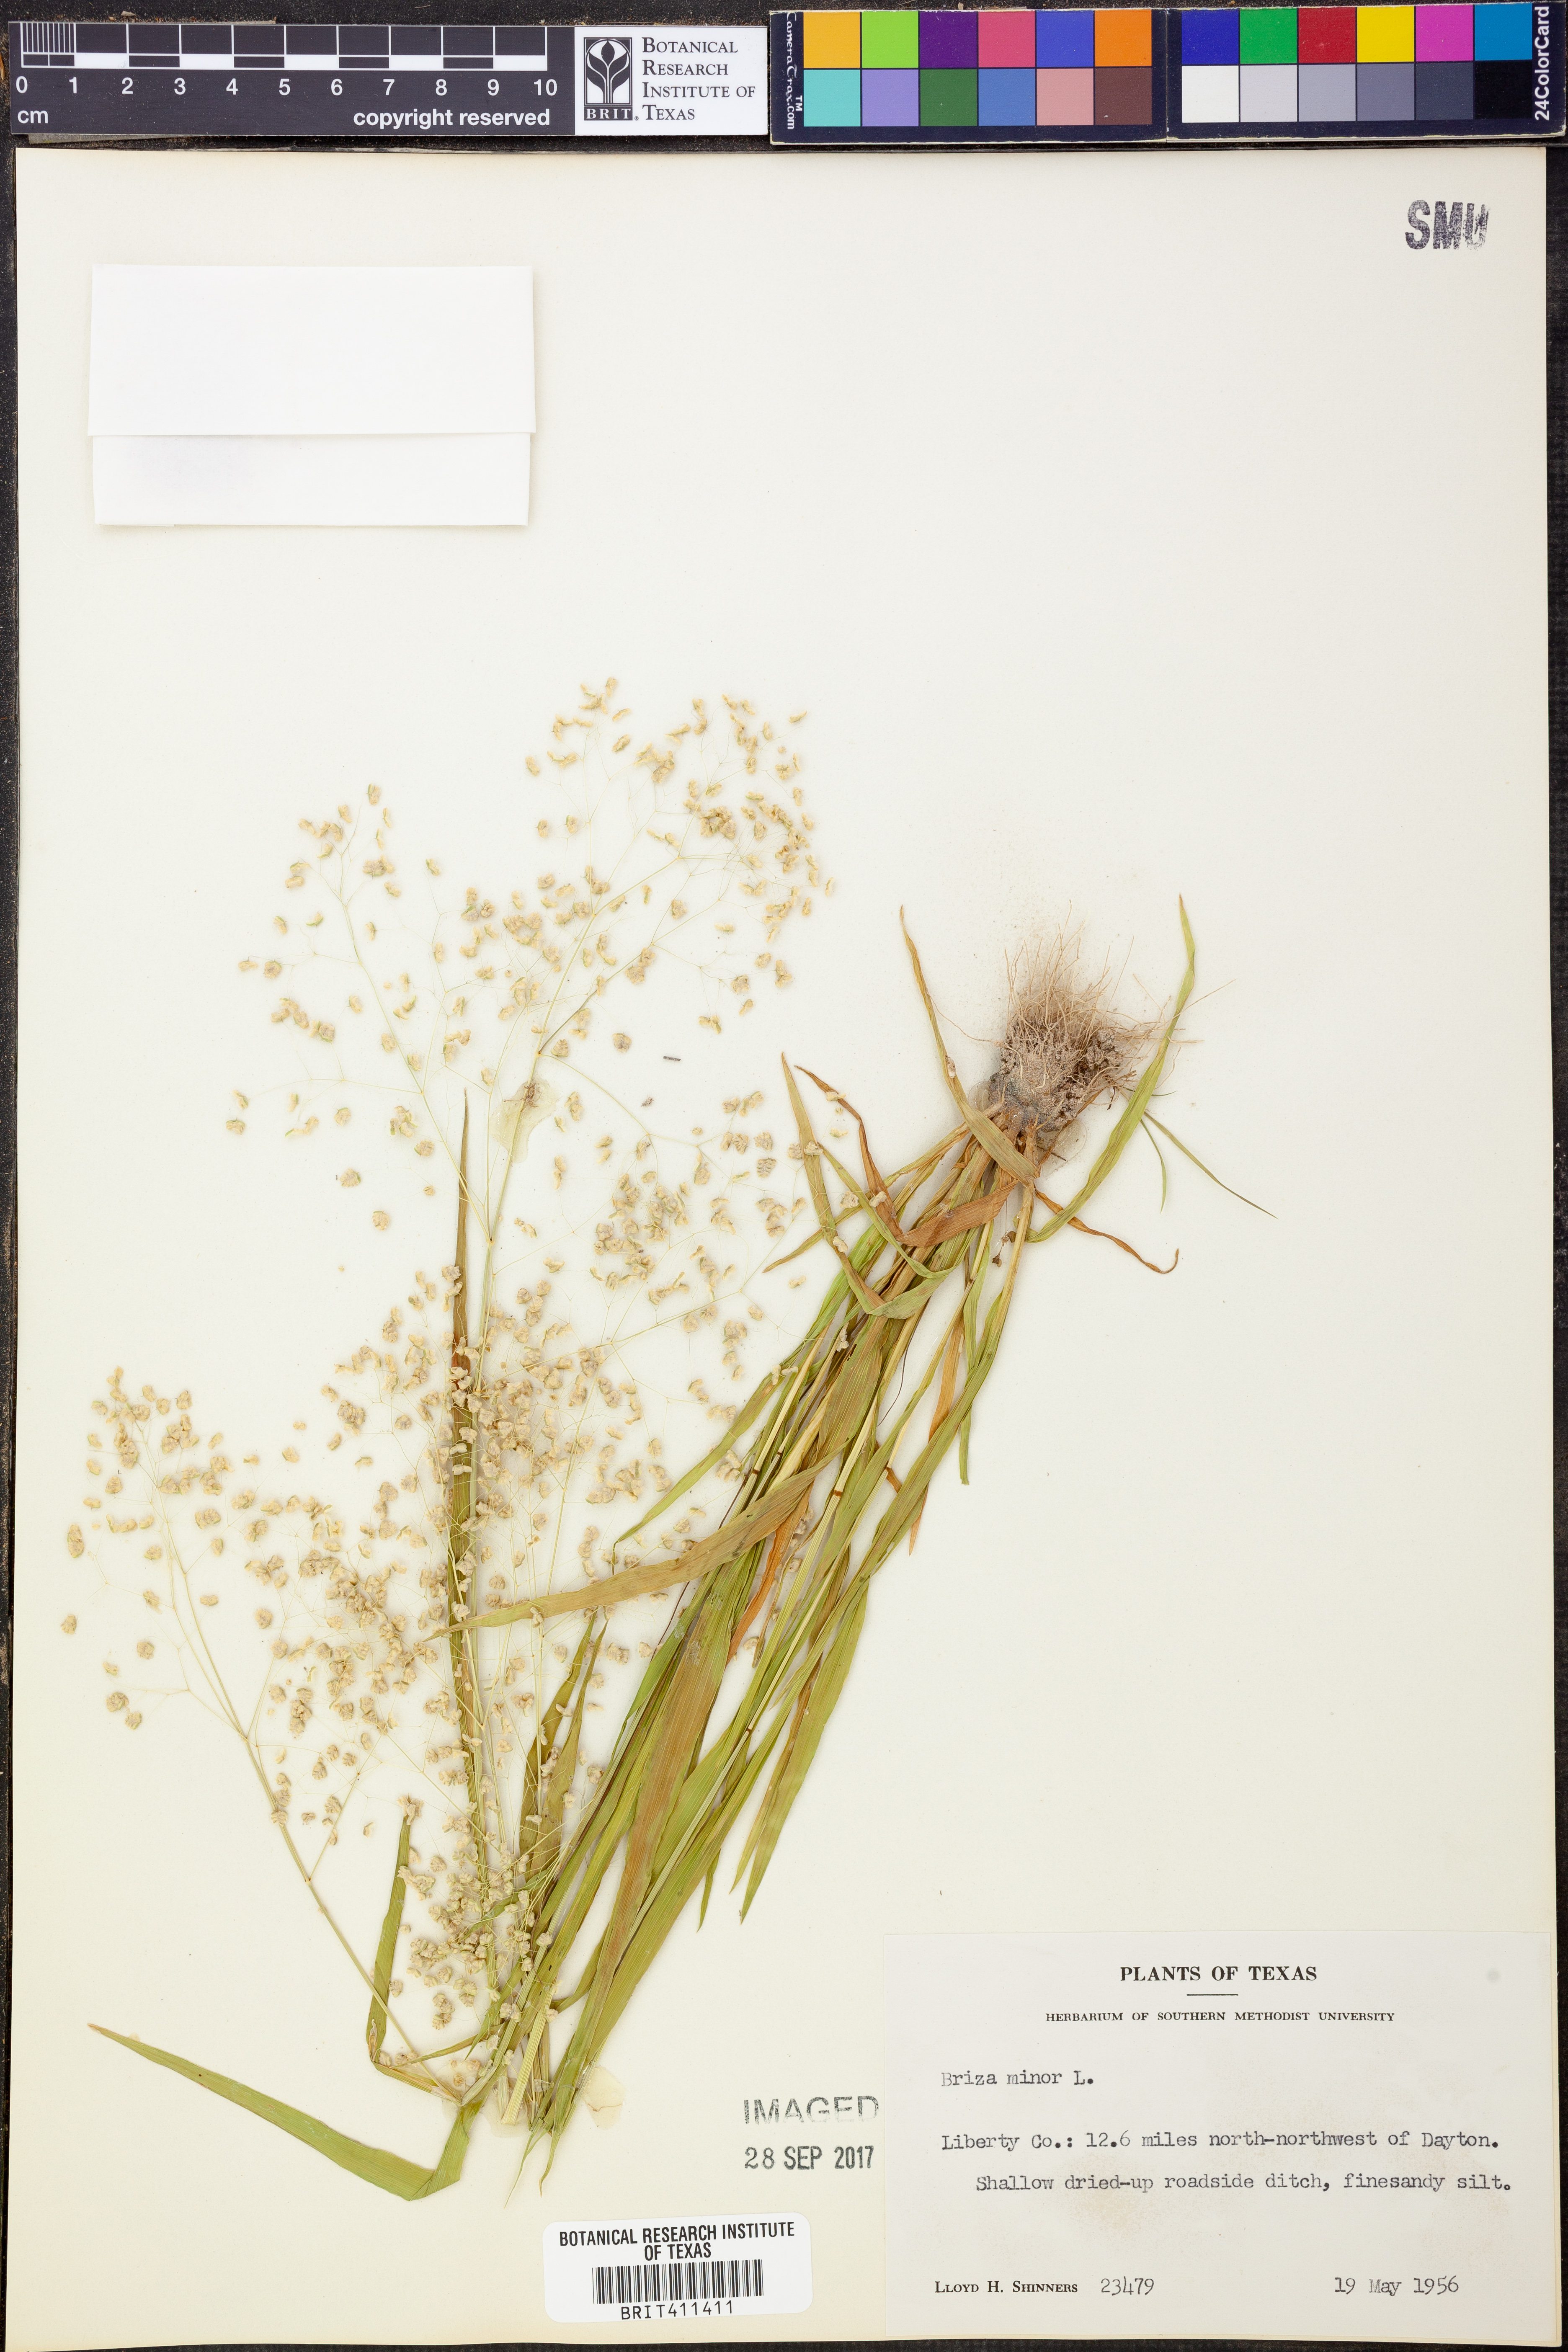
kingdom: Plantae
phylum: Tracheophyta
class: Liliopsida
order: Poales
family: Poaceae
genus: Briza
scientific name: Briza minor
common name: Lesser quaking-grass
